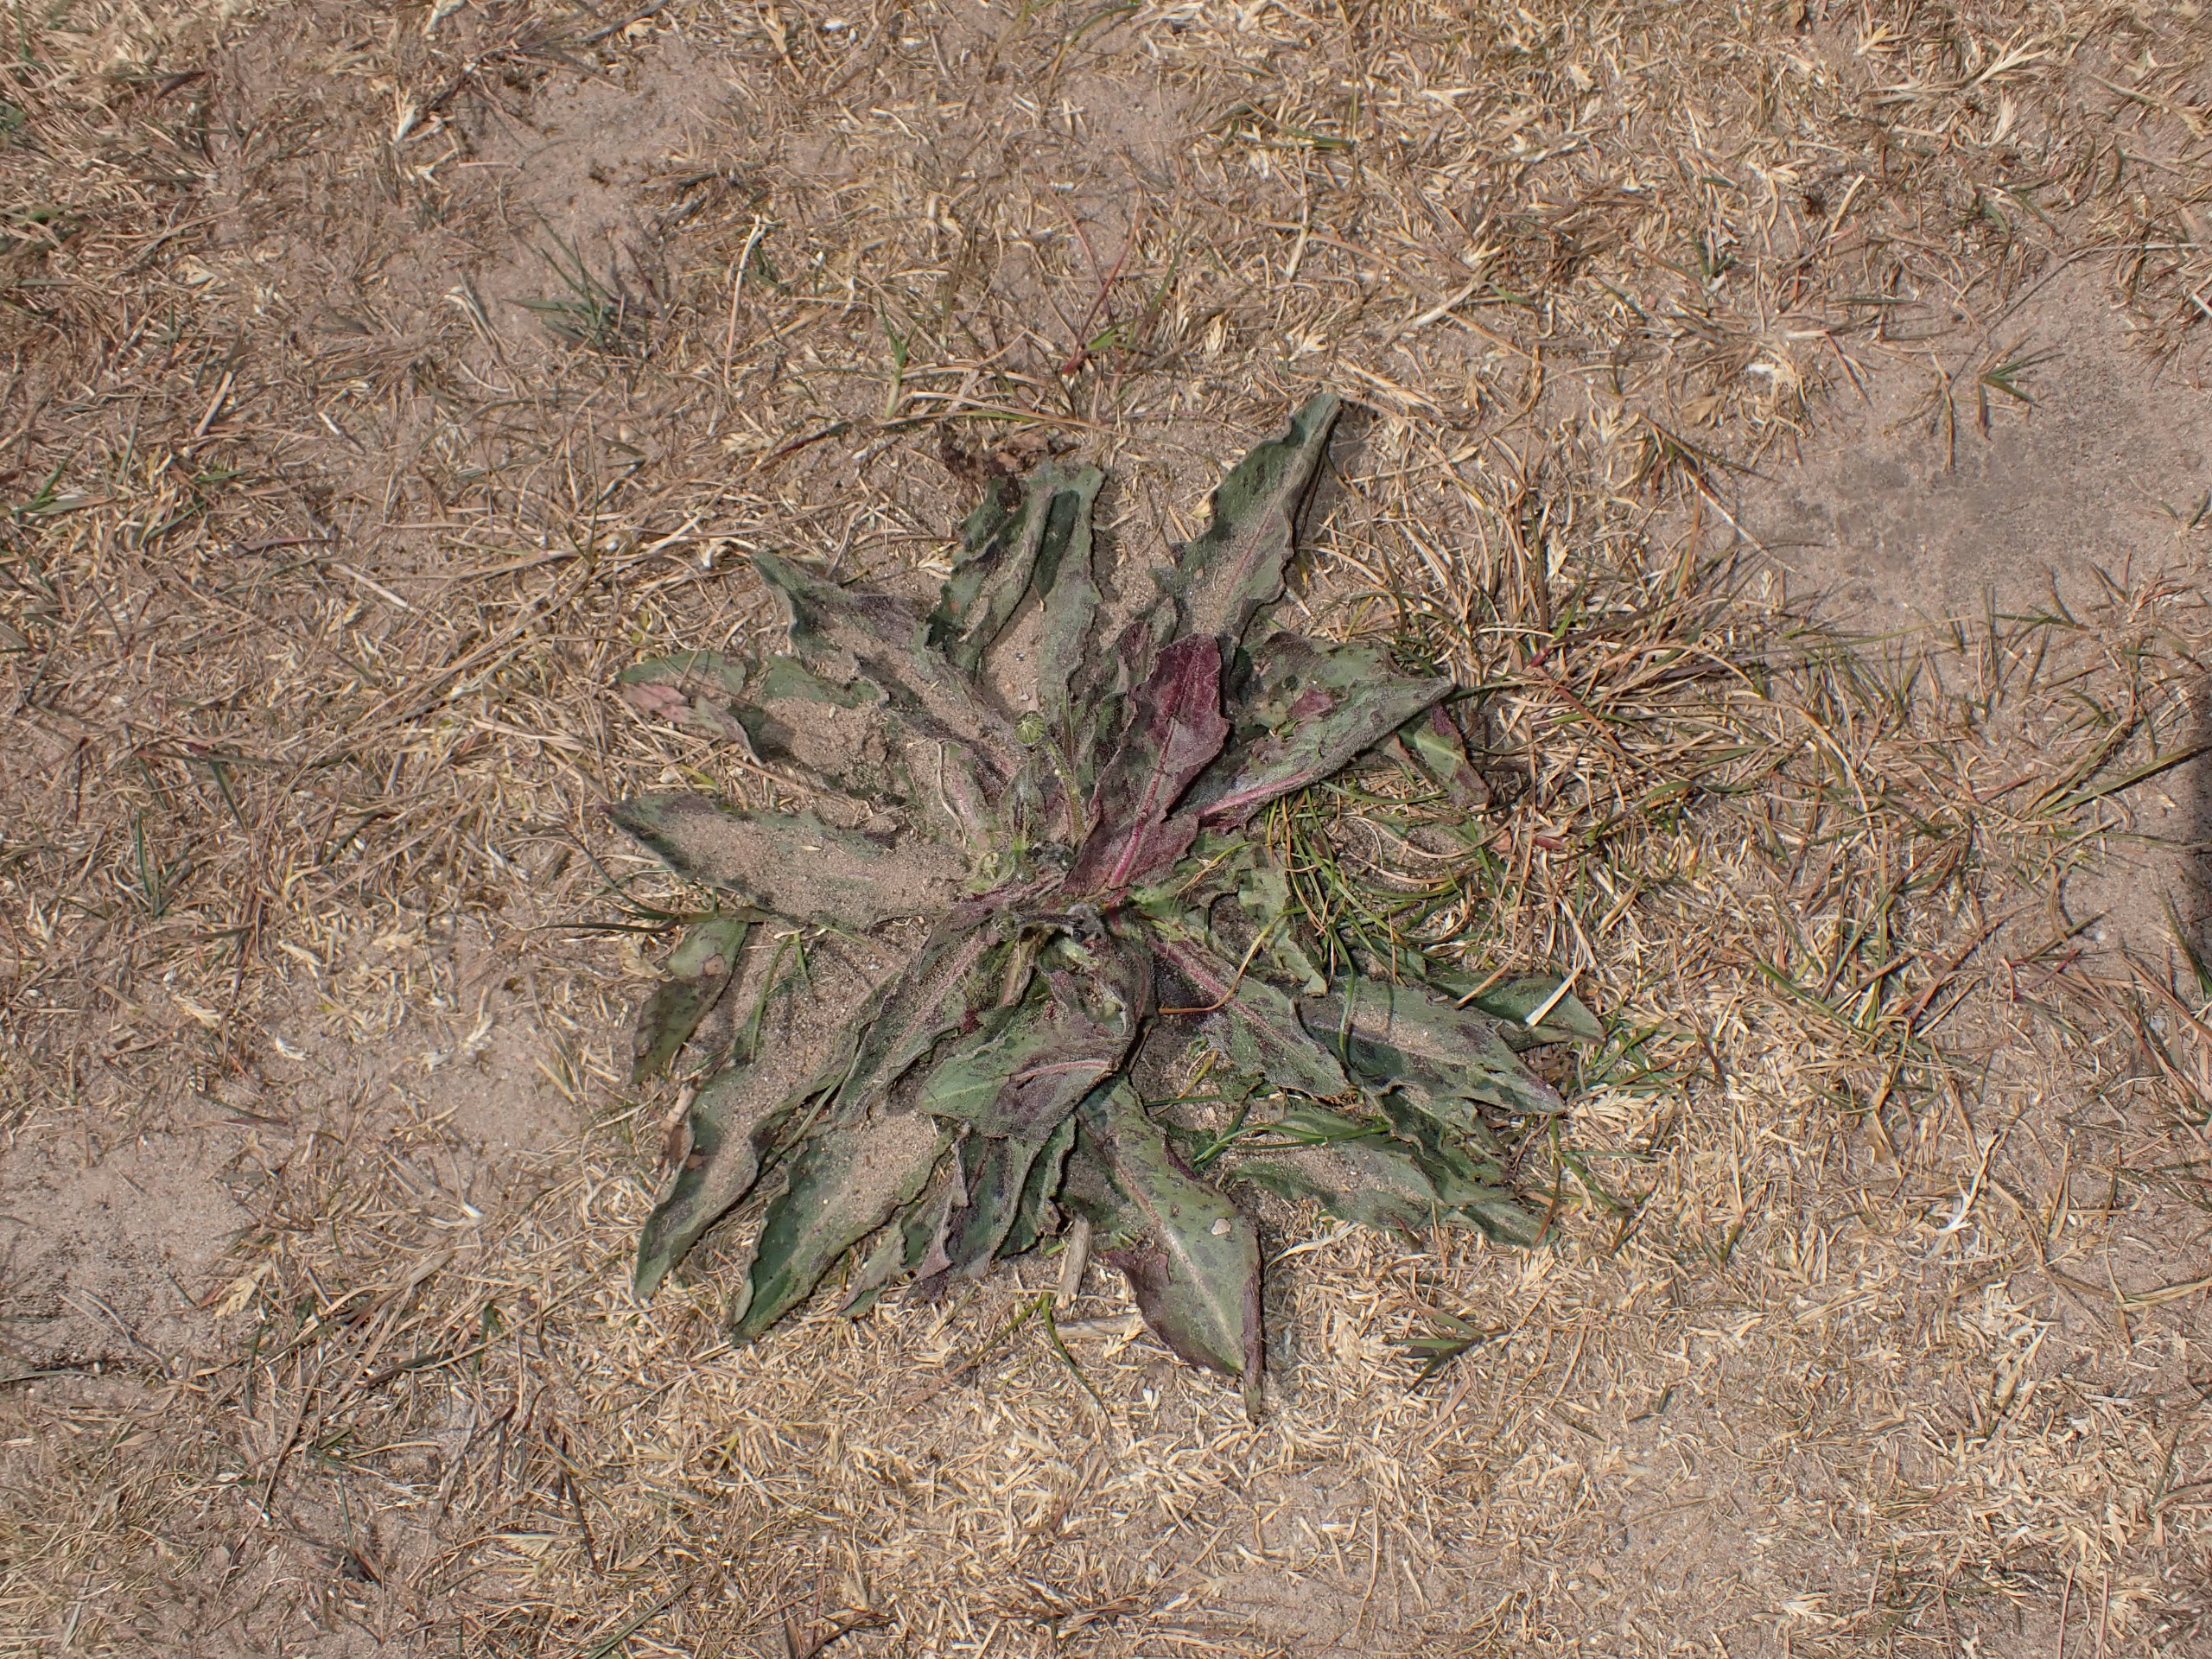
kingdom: Plantae
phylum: Tracheophyta
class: Magnoliopsida
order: Asterales
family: Asteraceae
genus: Trommsdorffia
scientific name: Trommsdorffia maculata
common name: Plettet kongepen
